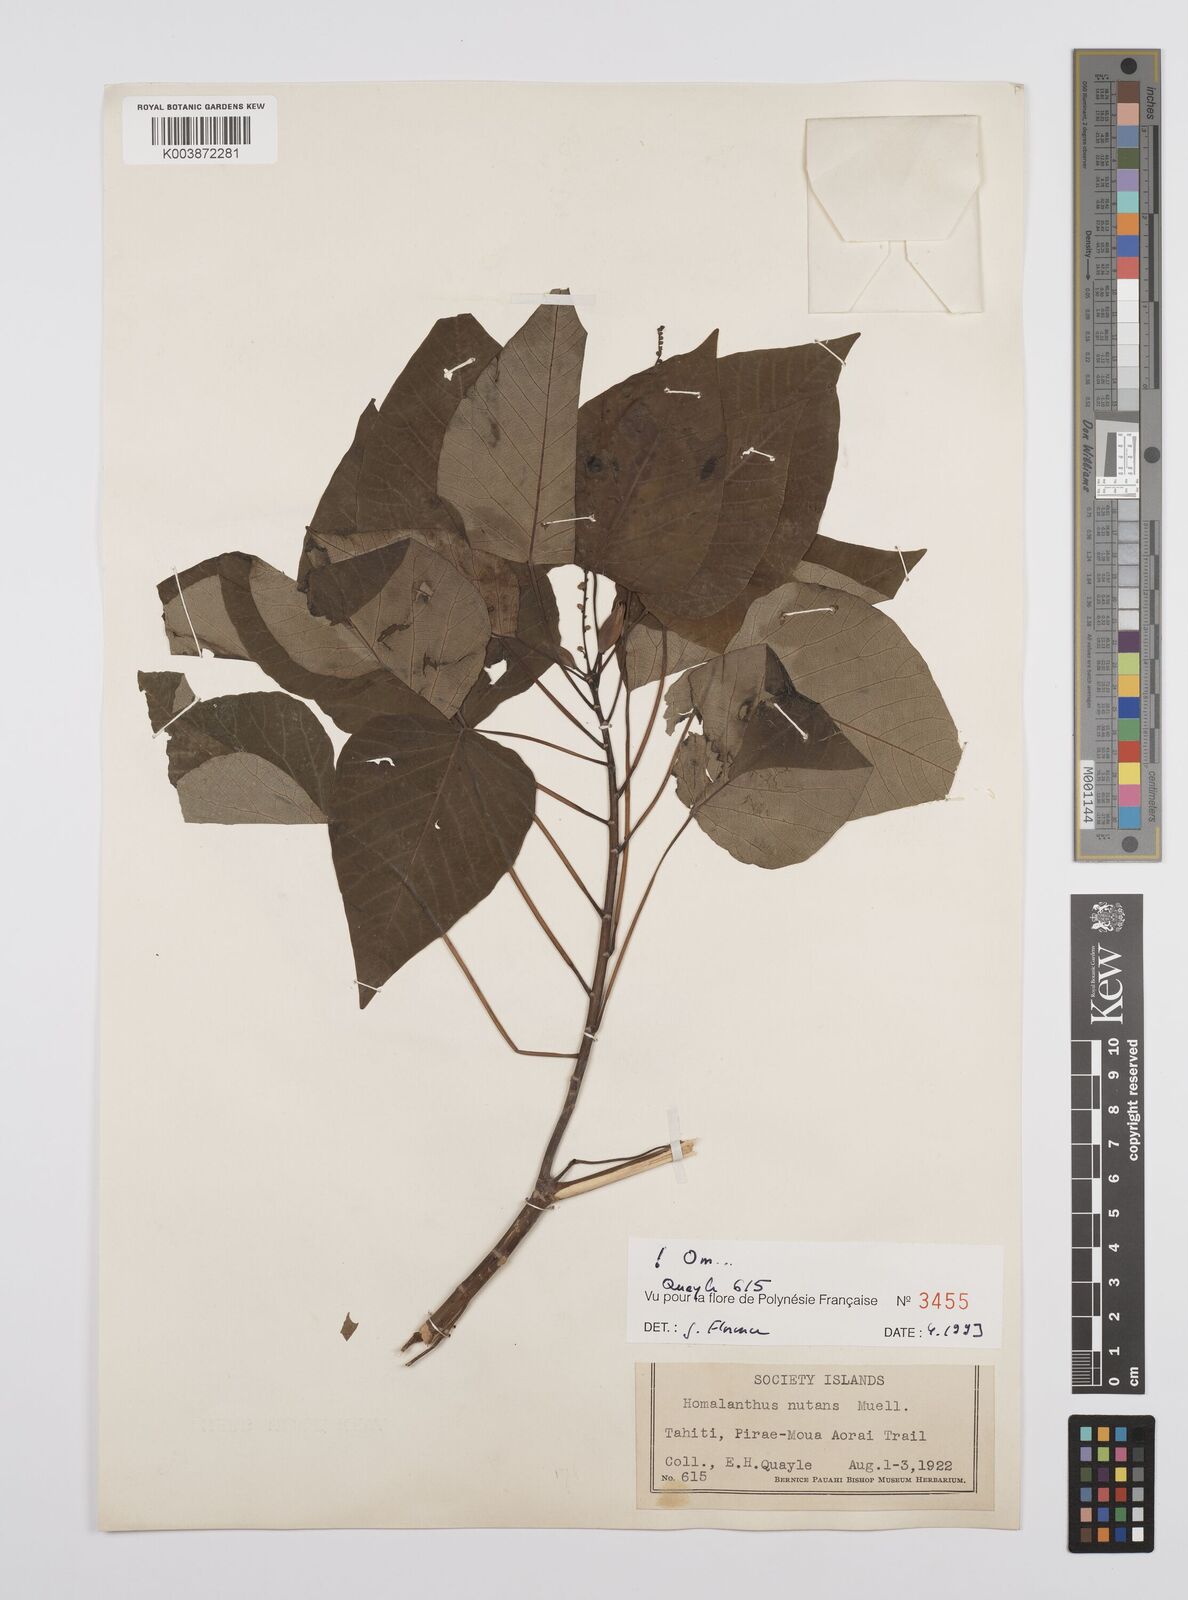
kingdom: Plantae
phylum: Tracheophyta
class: Magnoliopsida
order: Malpighiales
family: Euphorbiaceae
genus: Homalanthus
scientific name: Homalanthus nutans
